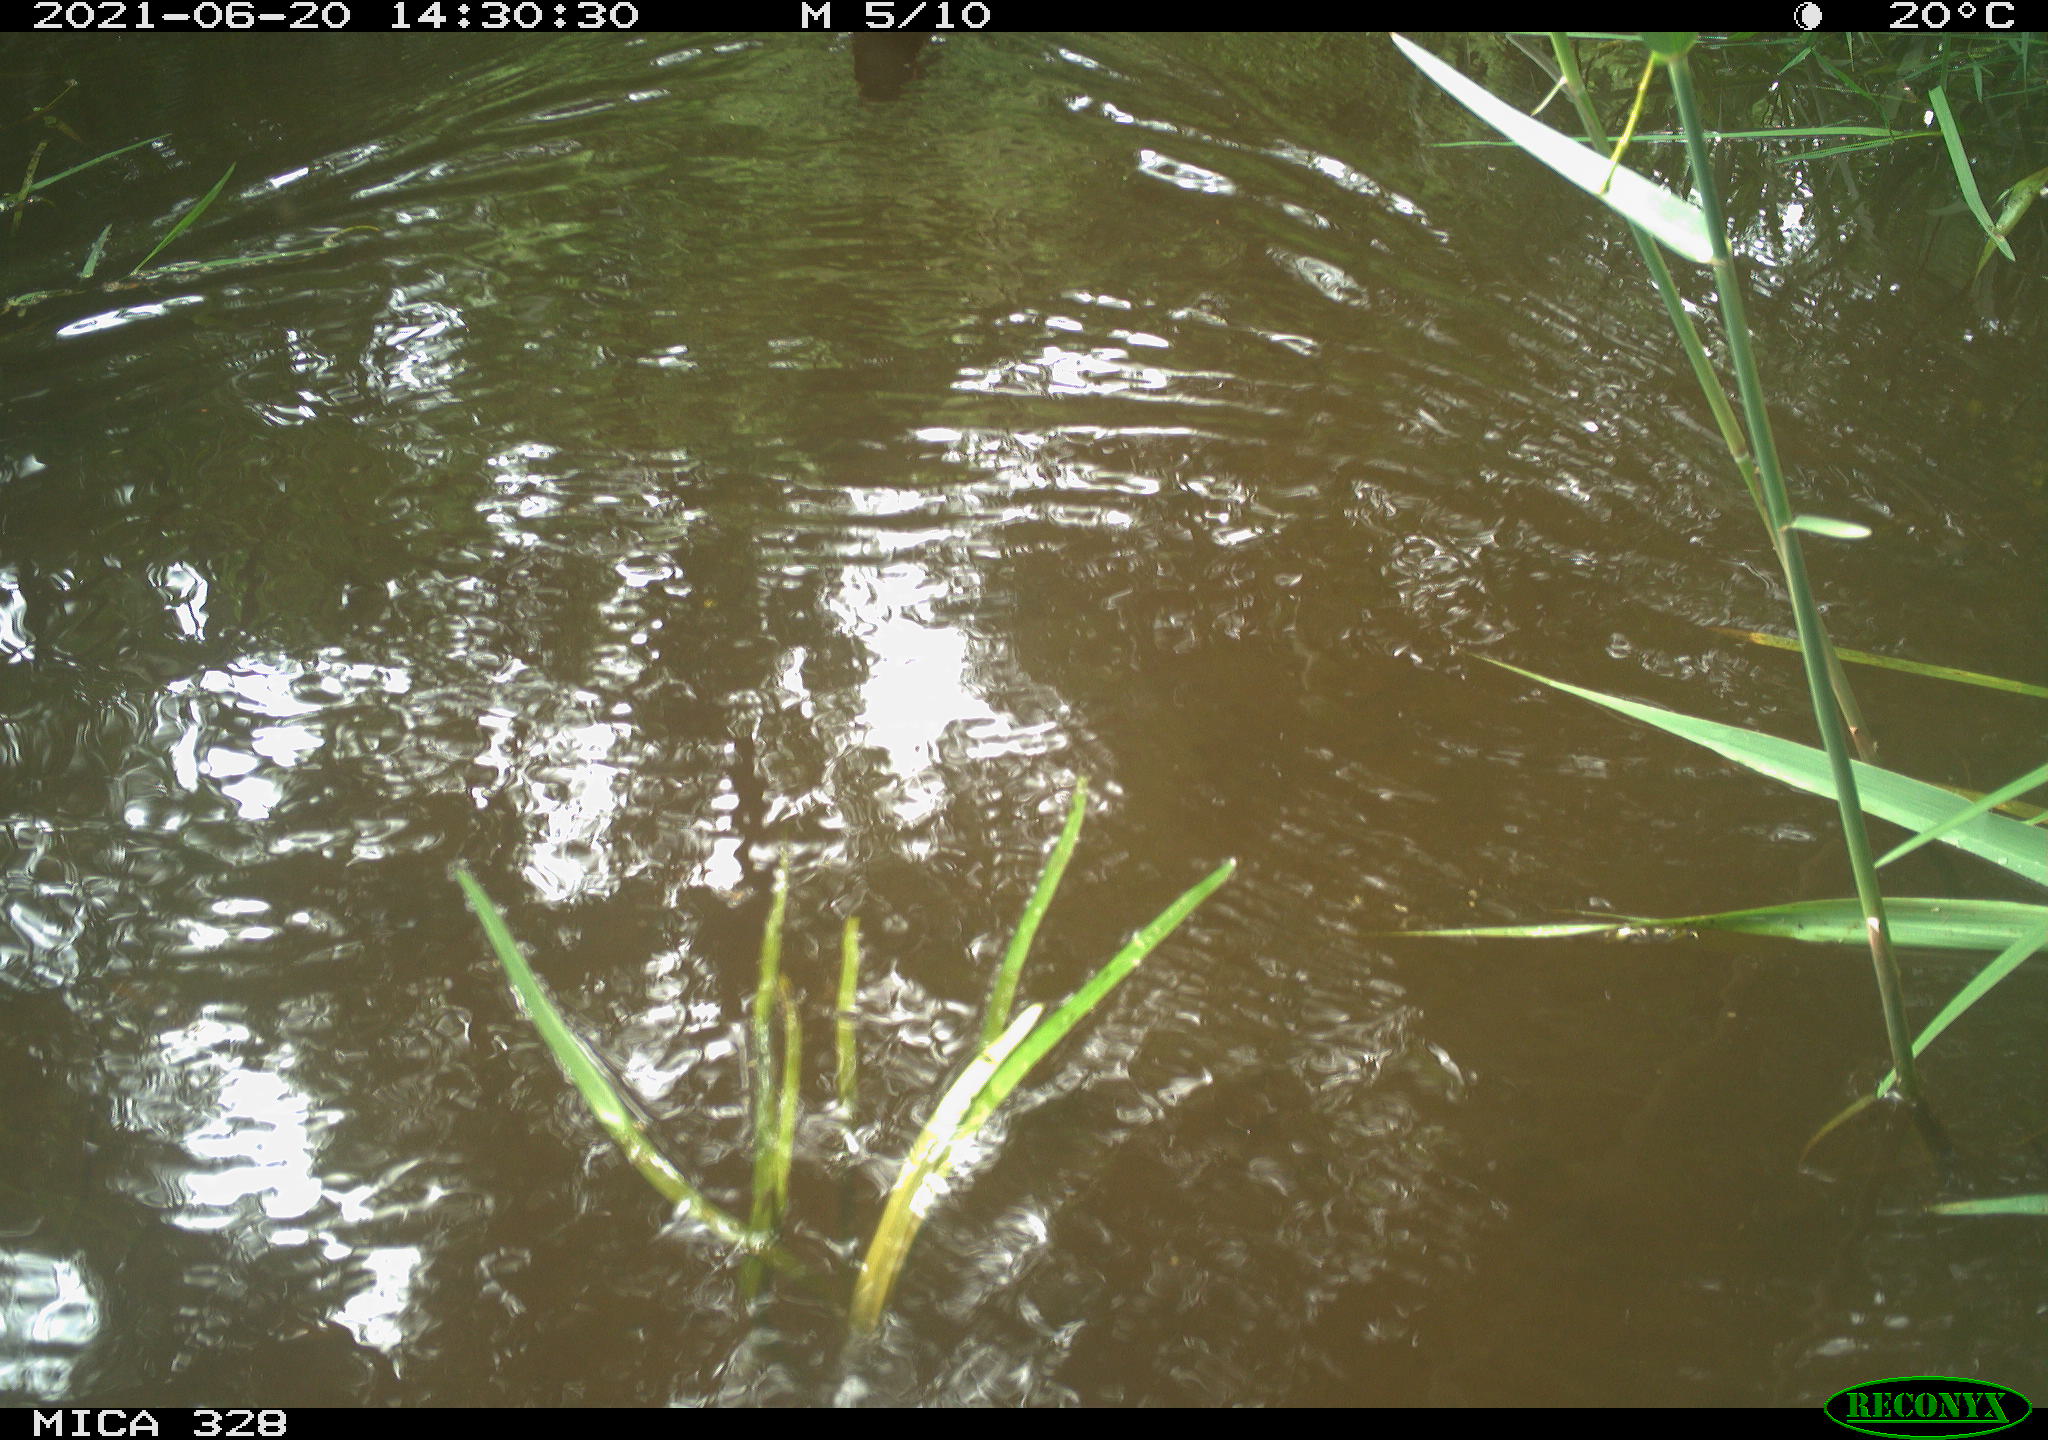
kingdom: Animalia
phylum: Chordata
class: Aves
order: Anseriformes
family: Anatidae
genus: Aix
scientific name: Aix galericulata
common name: Mandarin duck
